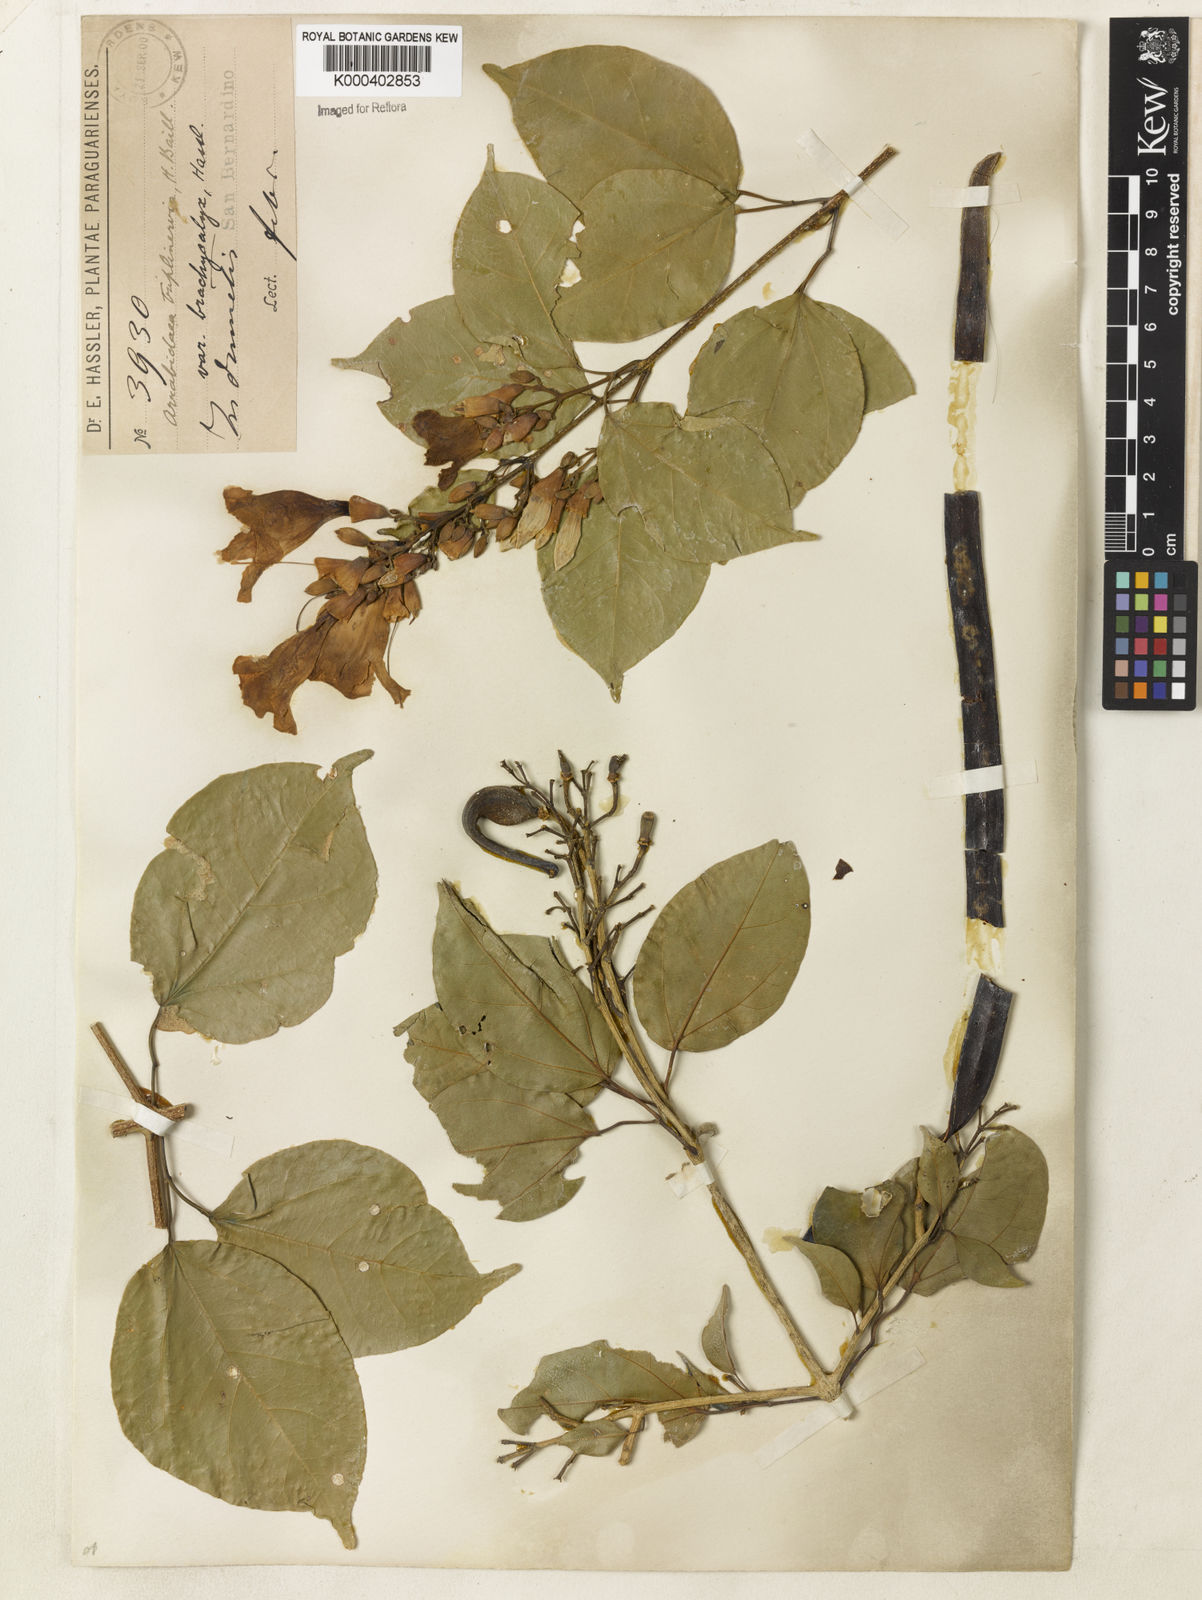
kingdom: Plantae
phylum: Tracheophyta
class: Magnoliopsida
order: Lamiales
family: Bignoniaceae
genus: Fridericia
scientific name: Fridericia triplinervia
